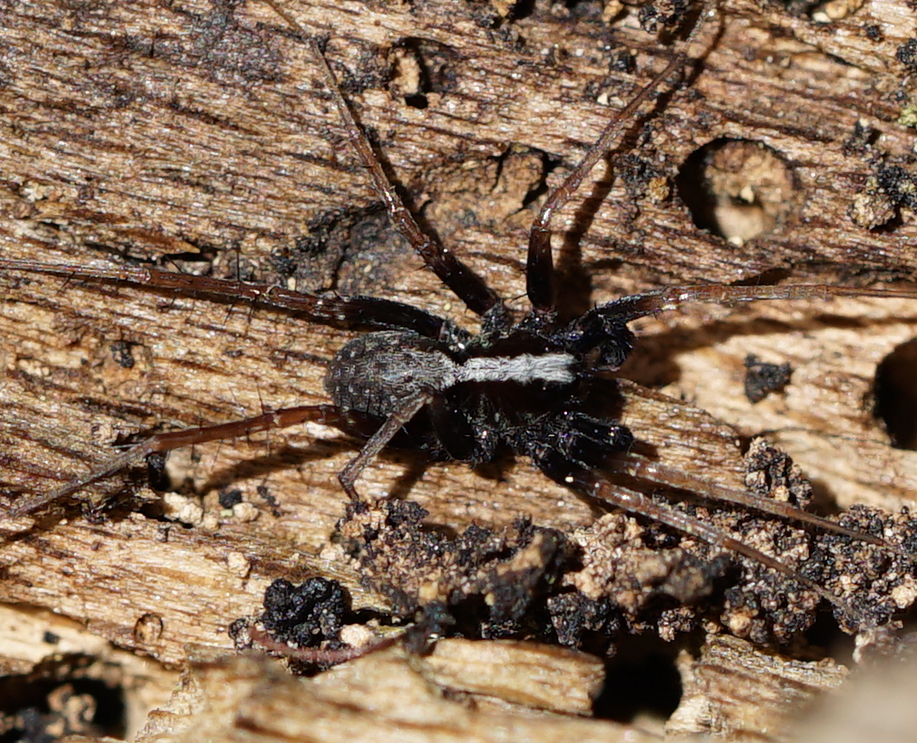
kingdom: Animalia
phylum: Arthropoda
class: Arachnida
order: Araneae
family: Lycosidae
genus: Pardosa
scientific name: Pardosa lugubris
